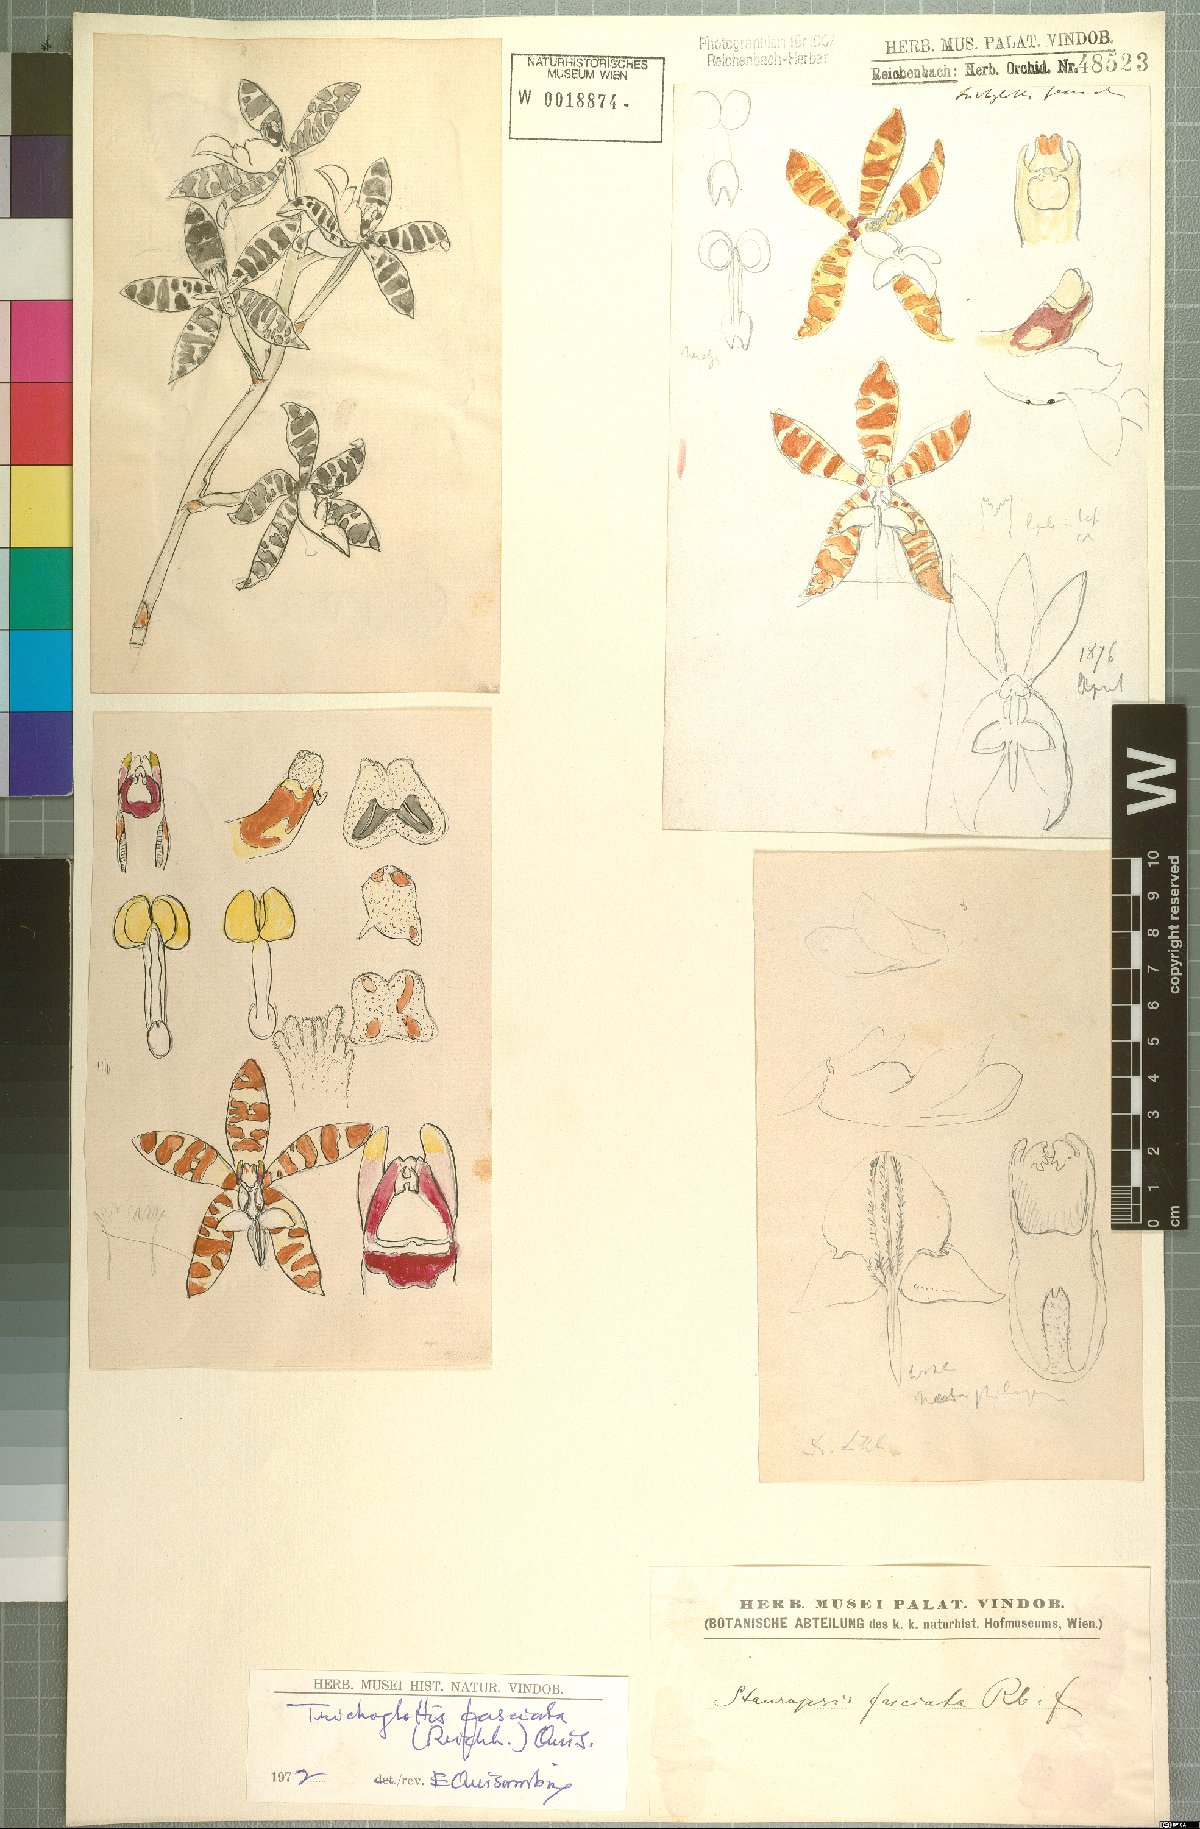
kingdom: Plantae
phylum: Tracheophyta
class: Liliopsida
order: Asparagales
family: Orchidaceae
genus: Trichoglottis
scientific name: Trichoglottis fasciata
